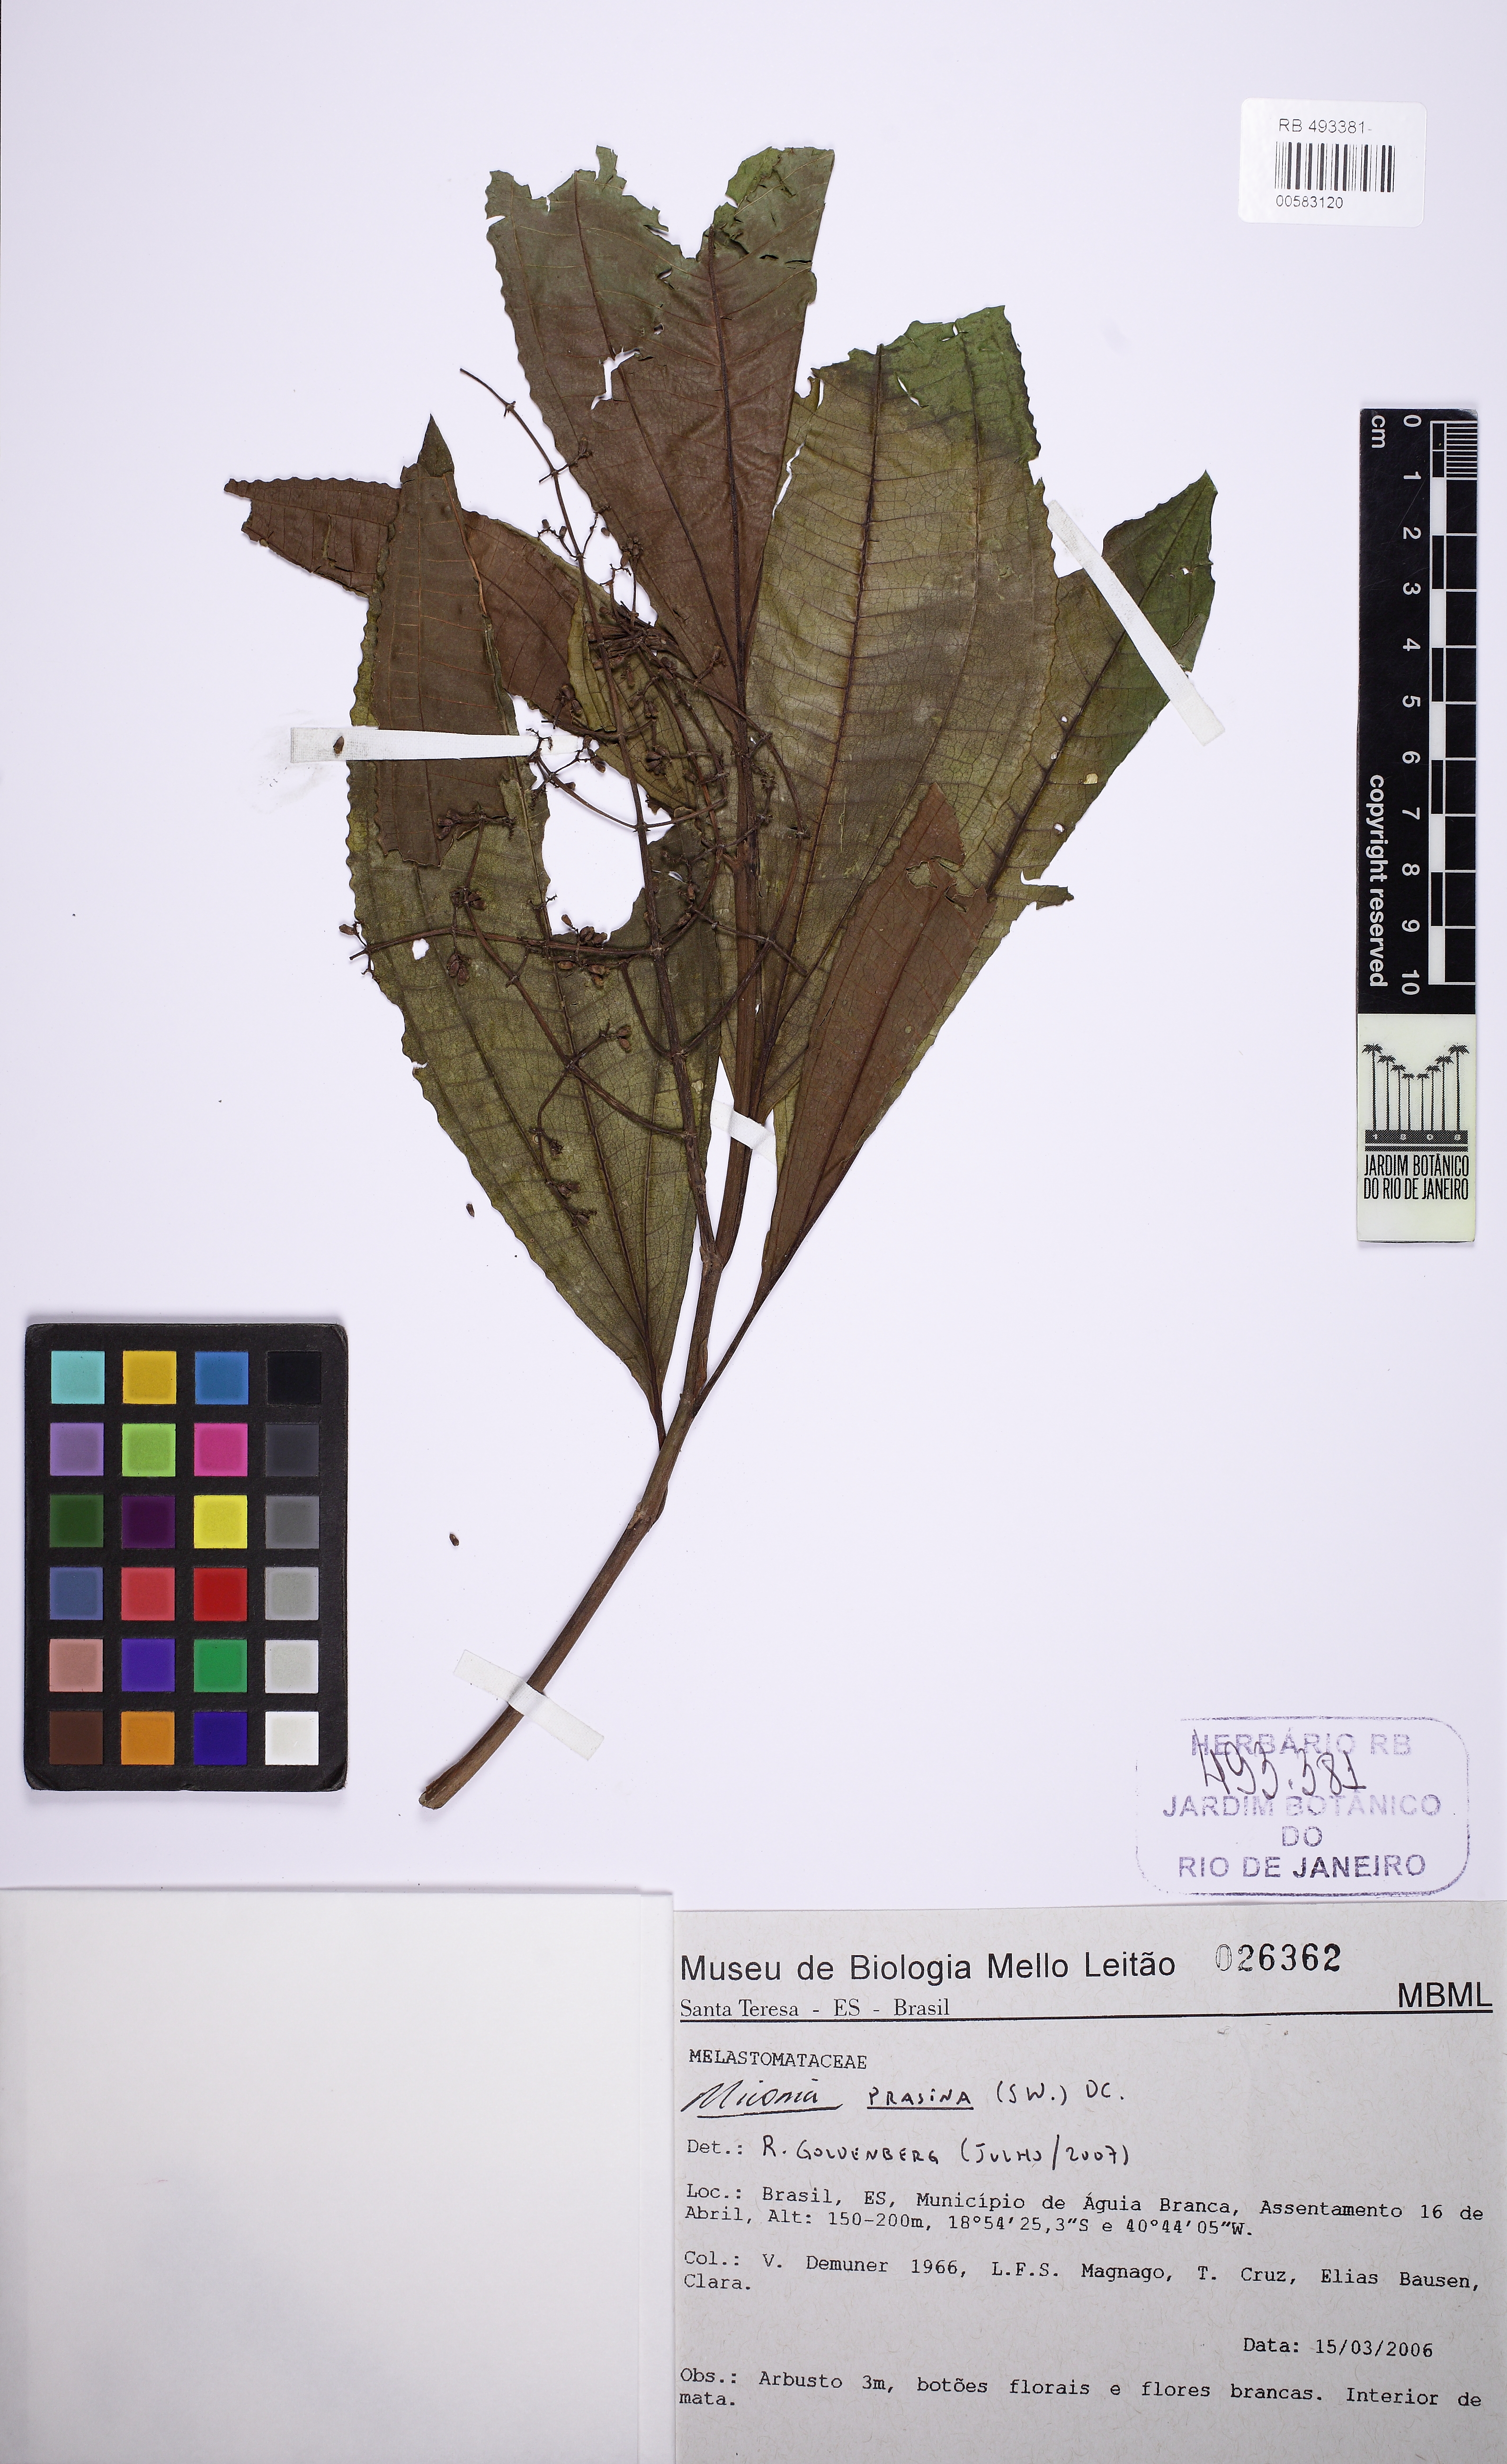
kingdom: Plantae
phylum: Tracheophyta
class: Magnoliopsida
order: Myrtales
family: Melastomataceae
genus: Miconia
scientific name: Miconia prasina
